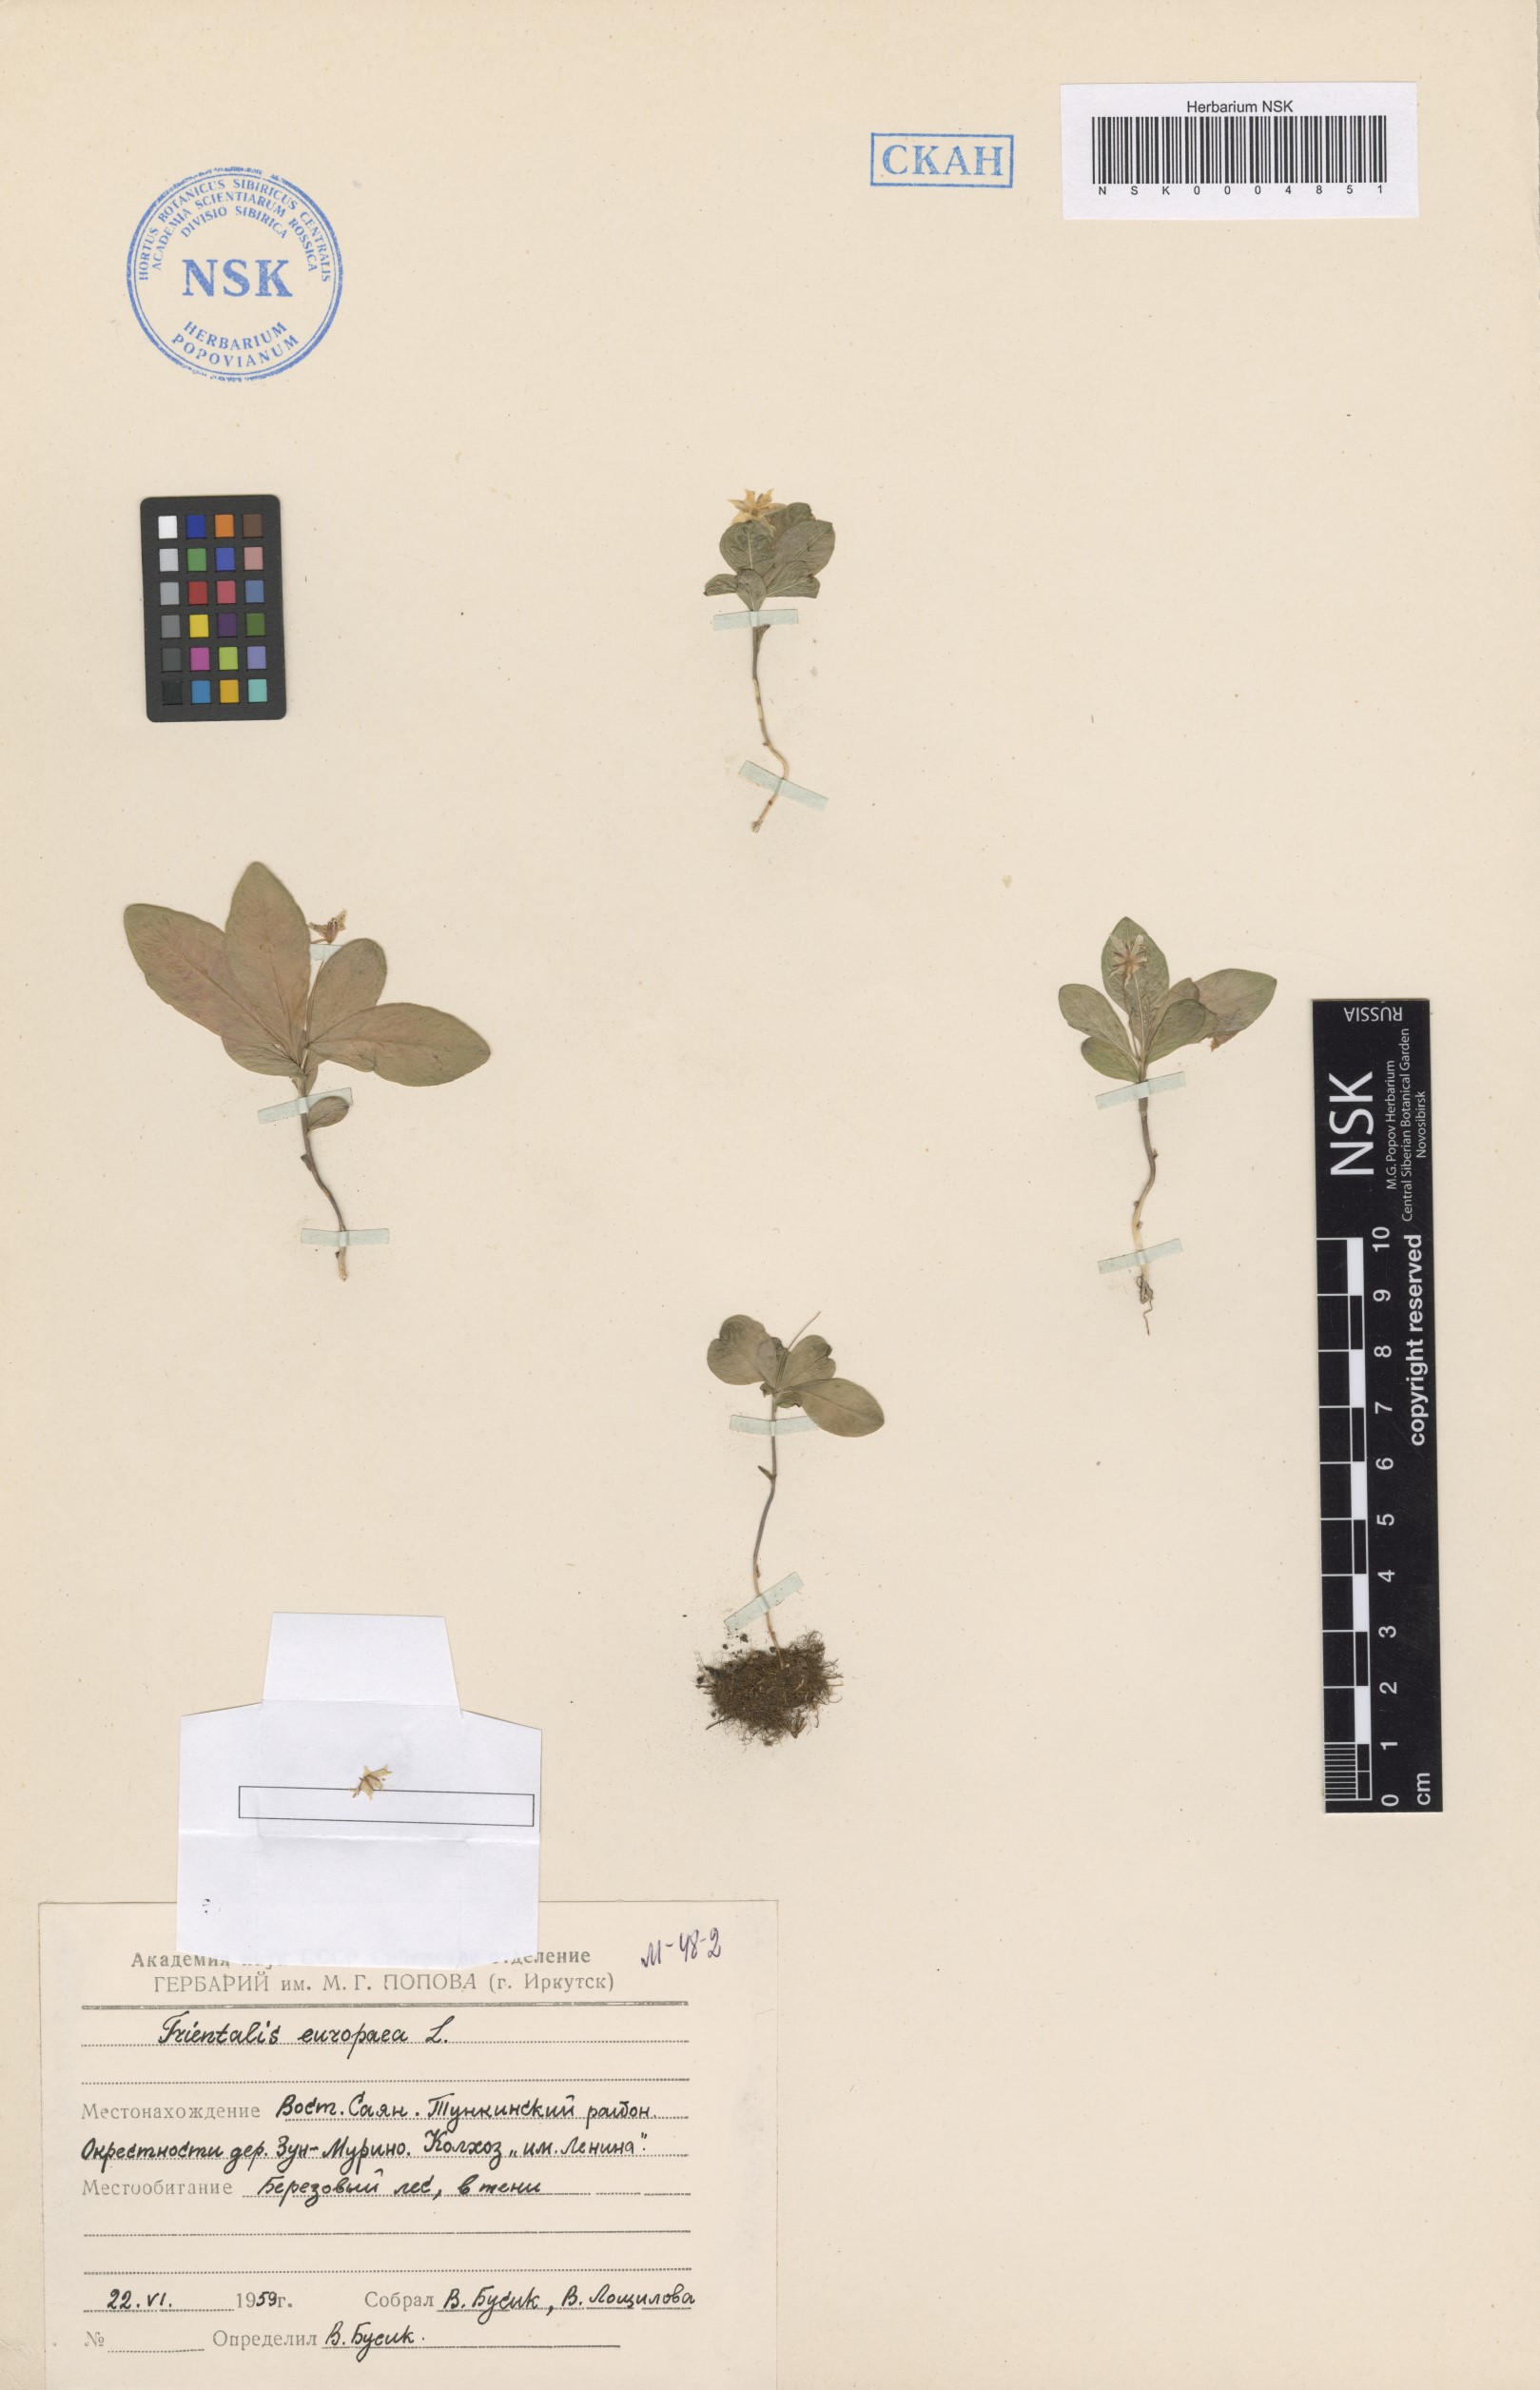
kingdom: Plantae
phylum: Tracheophyta
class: Magnoliopsida
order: Ericales
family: Primulaceae
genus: Lysimachia
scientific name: Lysimachia europaea
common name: Arctic starflower
